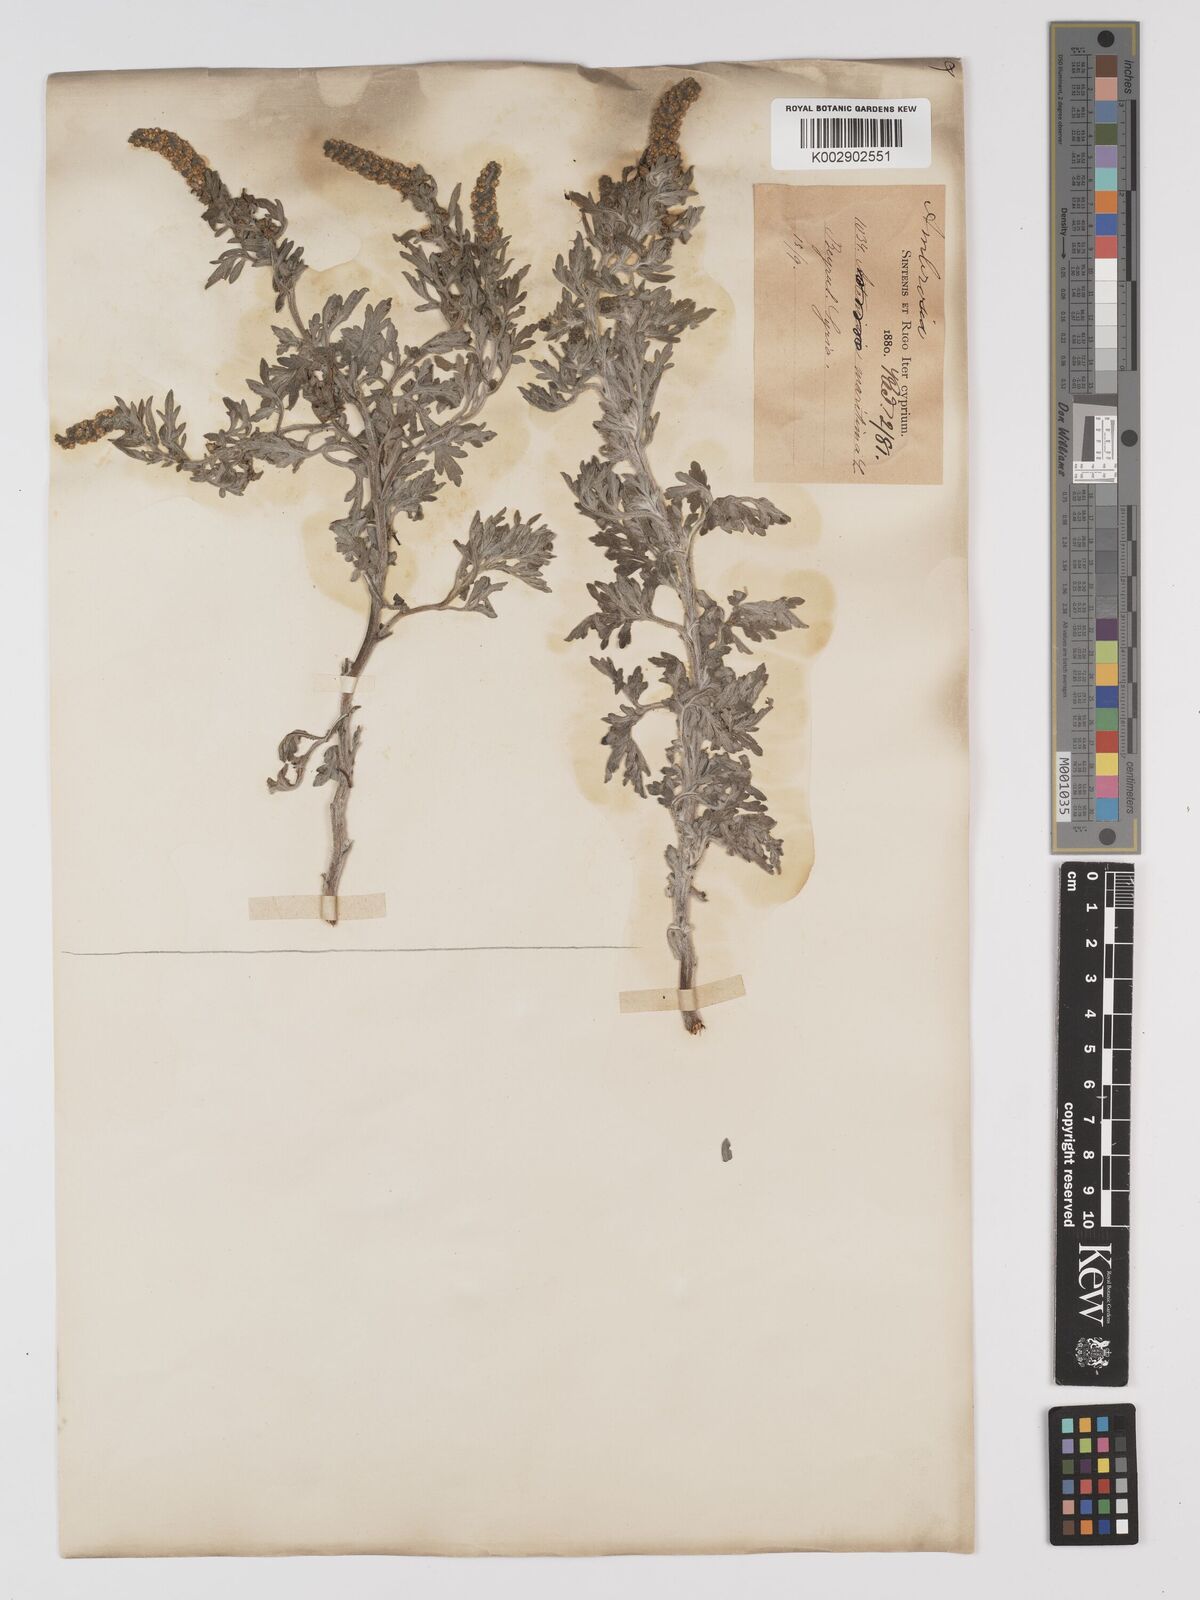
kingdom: Plantae
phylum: Tracheophyta
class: Magnoliopsida
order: Asterales
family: Asteraceae
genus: Ambrosia
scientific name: Ambrosia maritima
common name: Sea ambrosia
